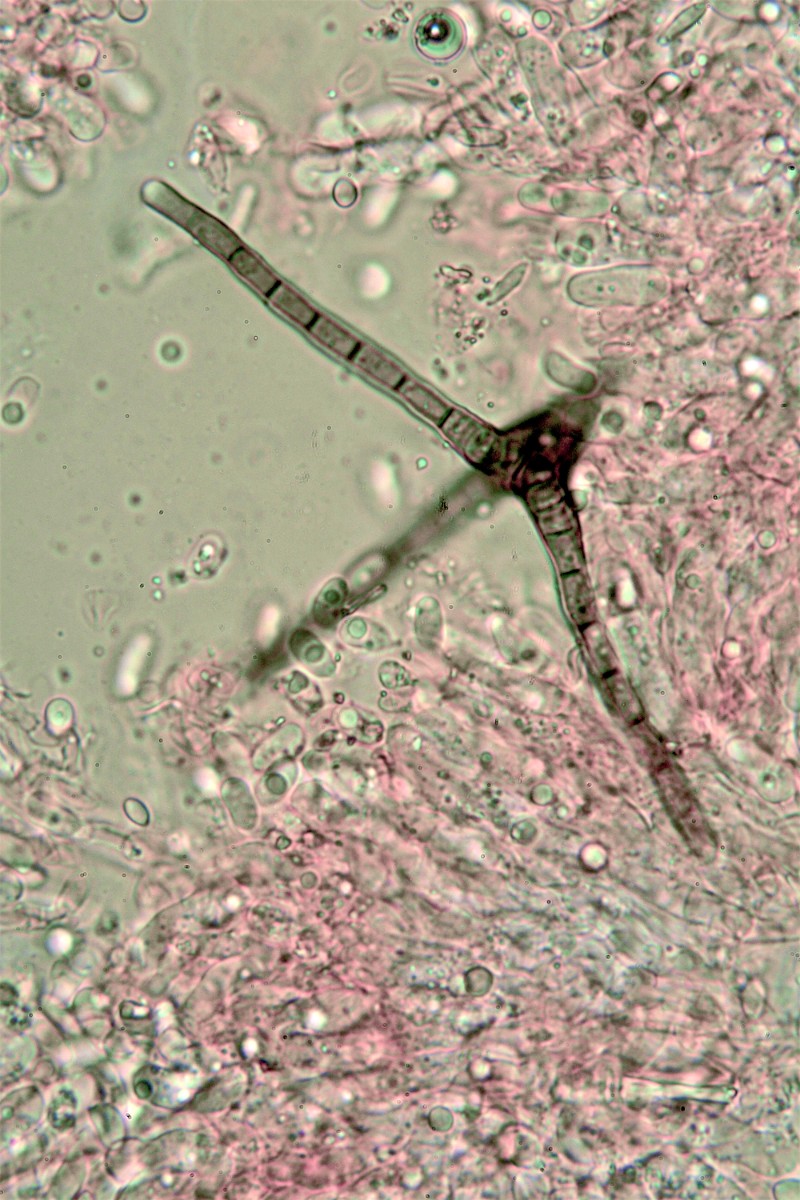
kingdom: Fungi
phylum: Ascomycota
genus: Actinocladium
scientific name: Actinocladium rhodosporum
